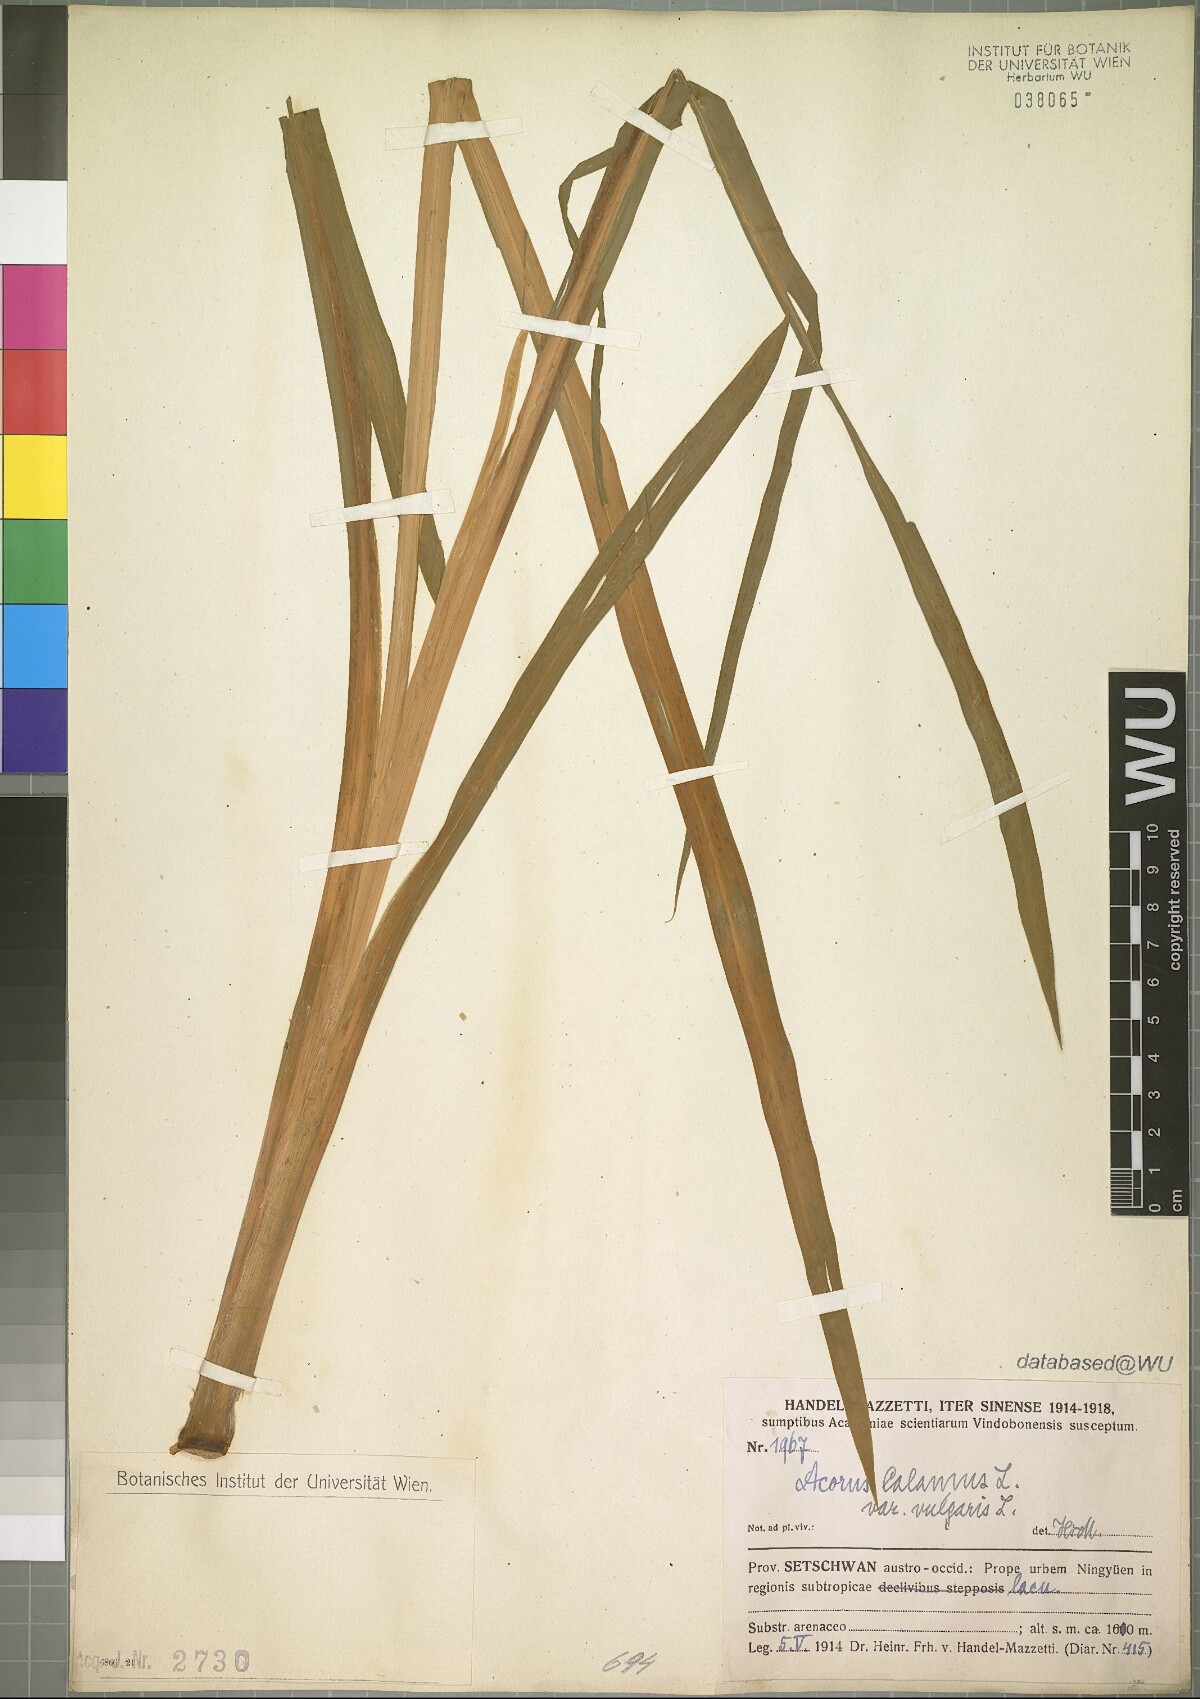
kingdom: Plantae
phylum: Tracheophyta
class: Liliopsida
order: Acorales
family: Acoraceae
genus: Acorus
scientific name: Acorus calamus
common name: Sweet-flag
